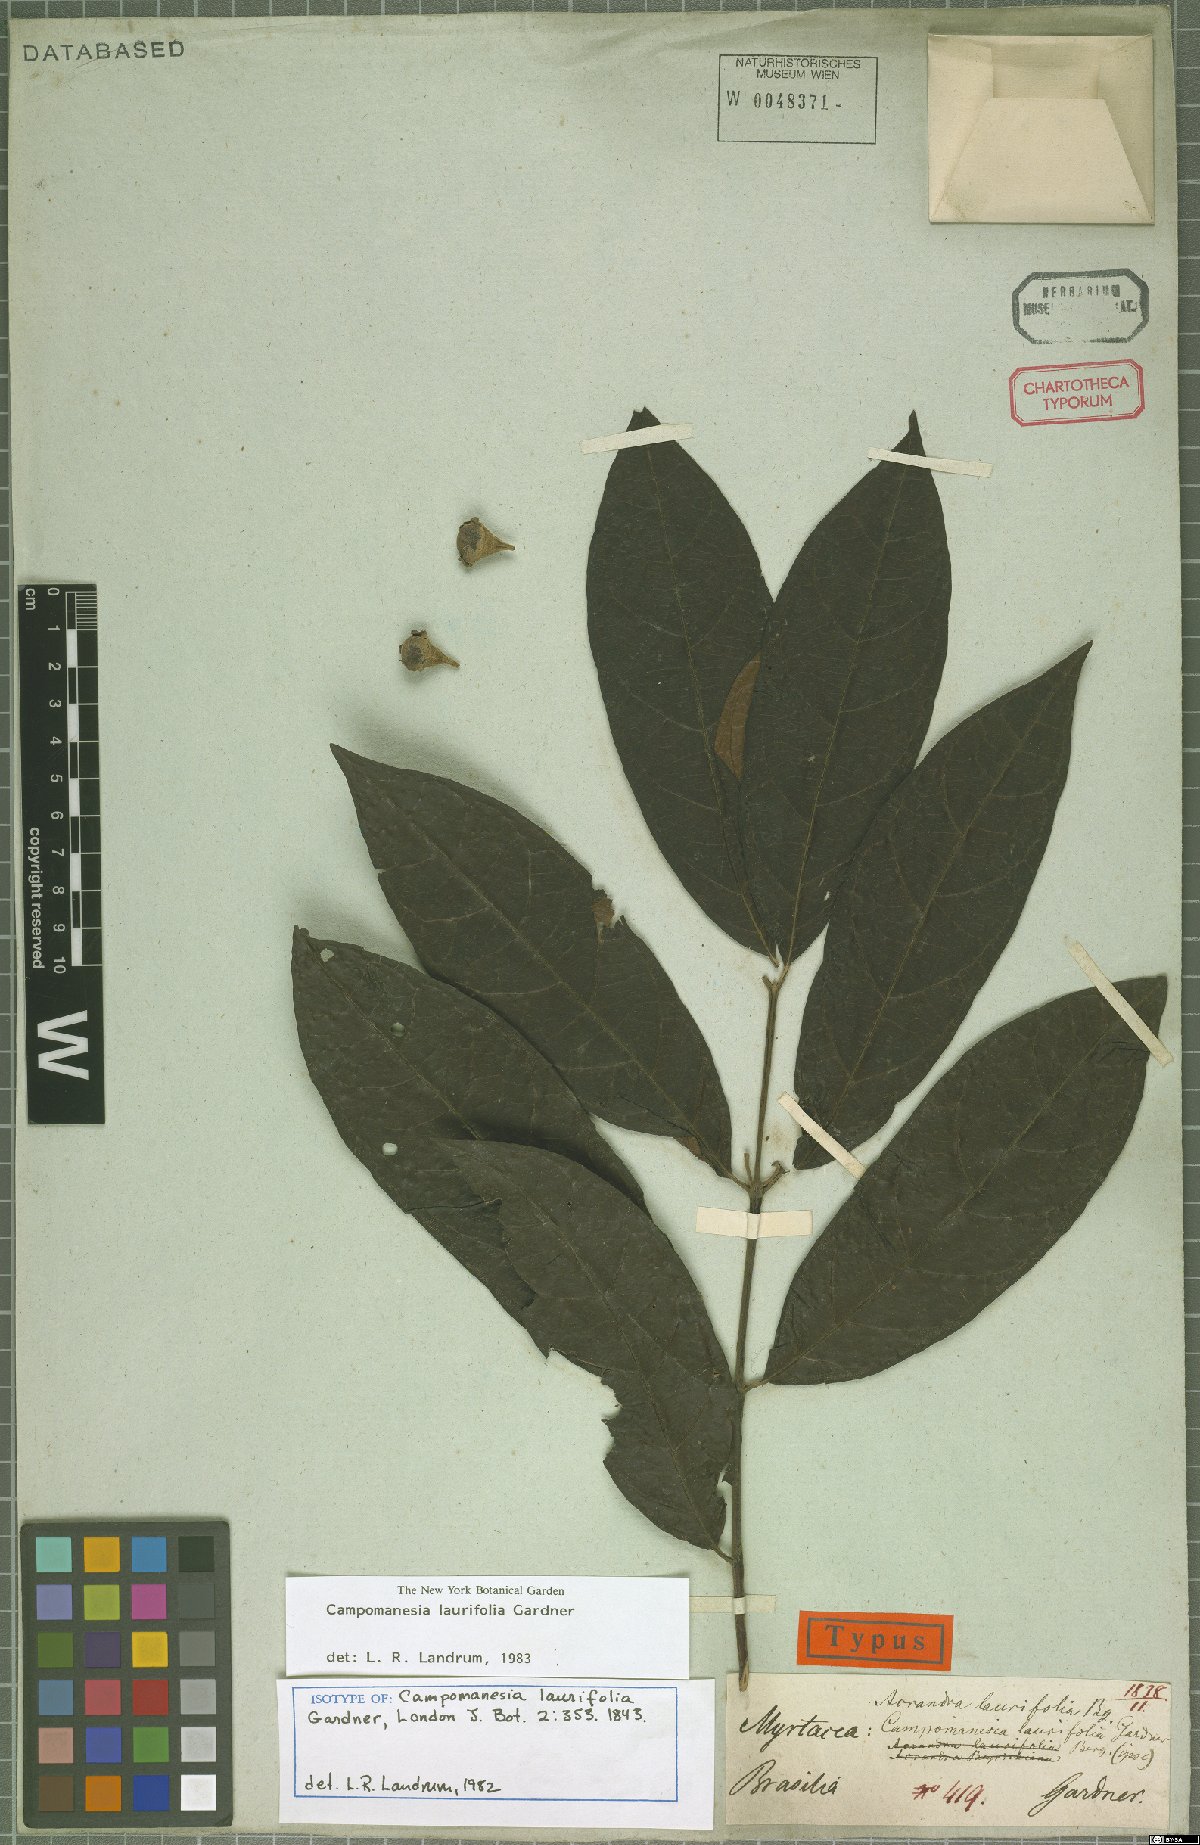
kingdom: Plantae
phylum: Tracheophyta
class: Magnoliopsida
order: Myrtales
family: Myrtaceae
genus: Campomanesia
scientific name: Campomanesia laurifolia
